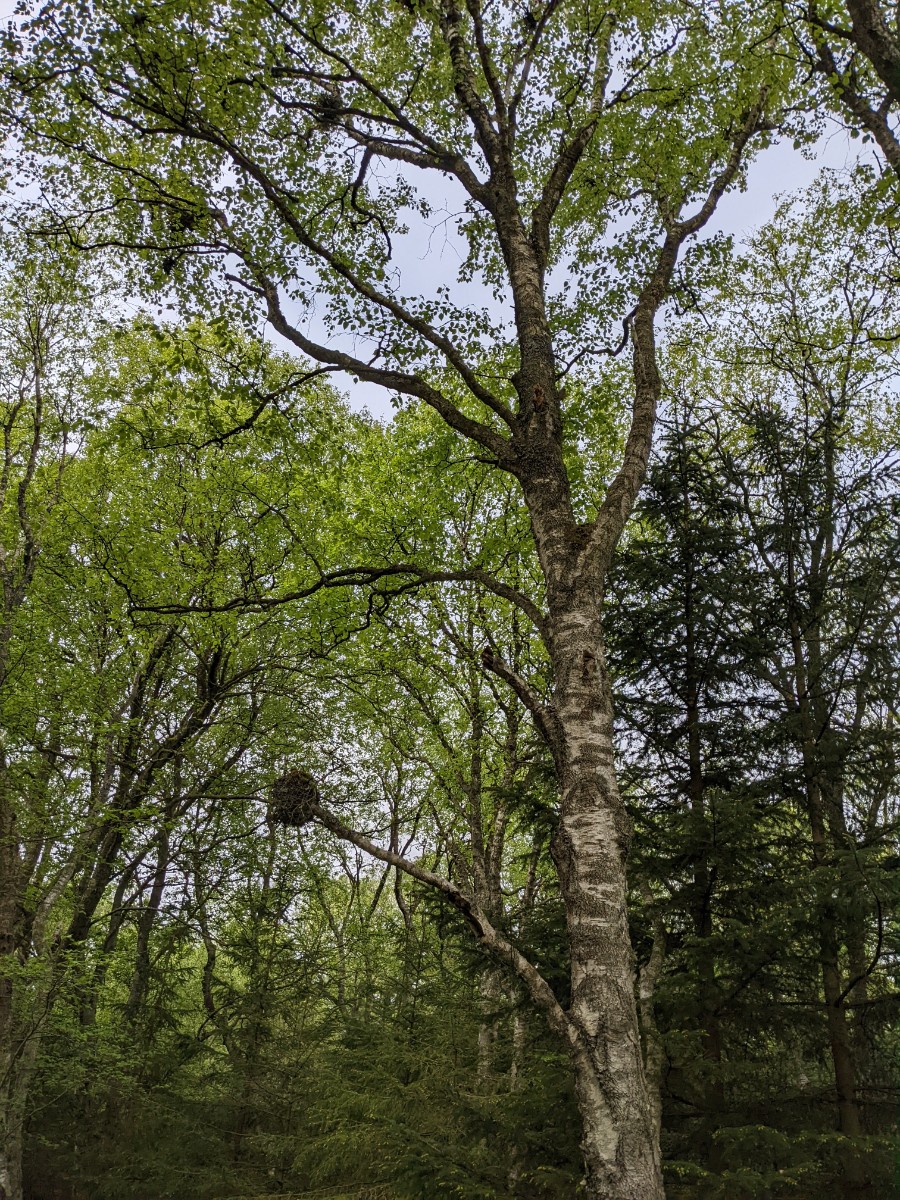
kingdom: Fungi
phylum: Ascomycota
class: Taphrinomycetes
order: Taphrinales
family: Taphrinaceae
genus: Taphrina
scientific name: Taphrina betulina
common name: hekse-sækdug
